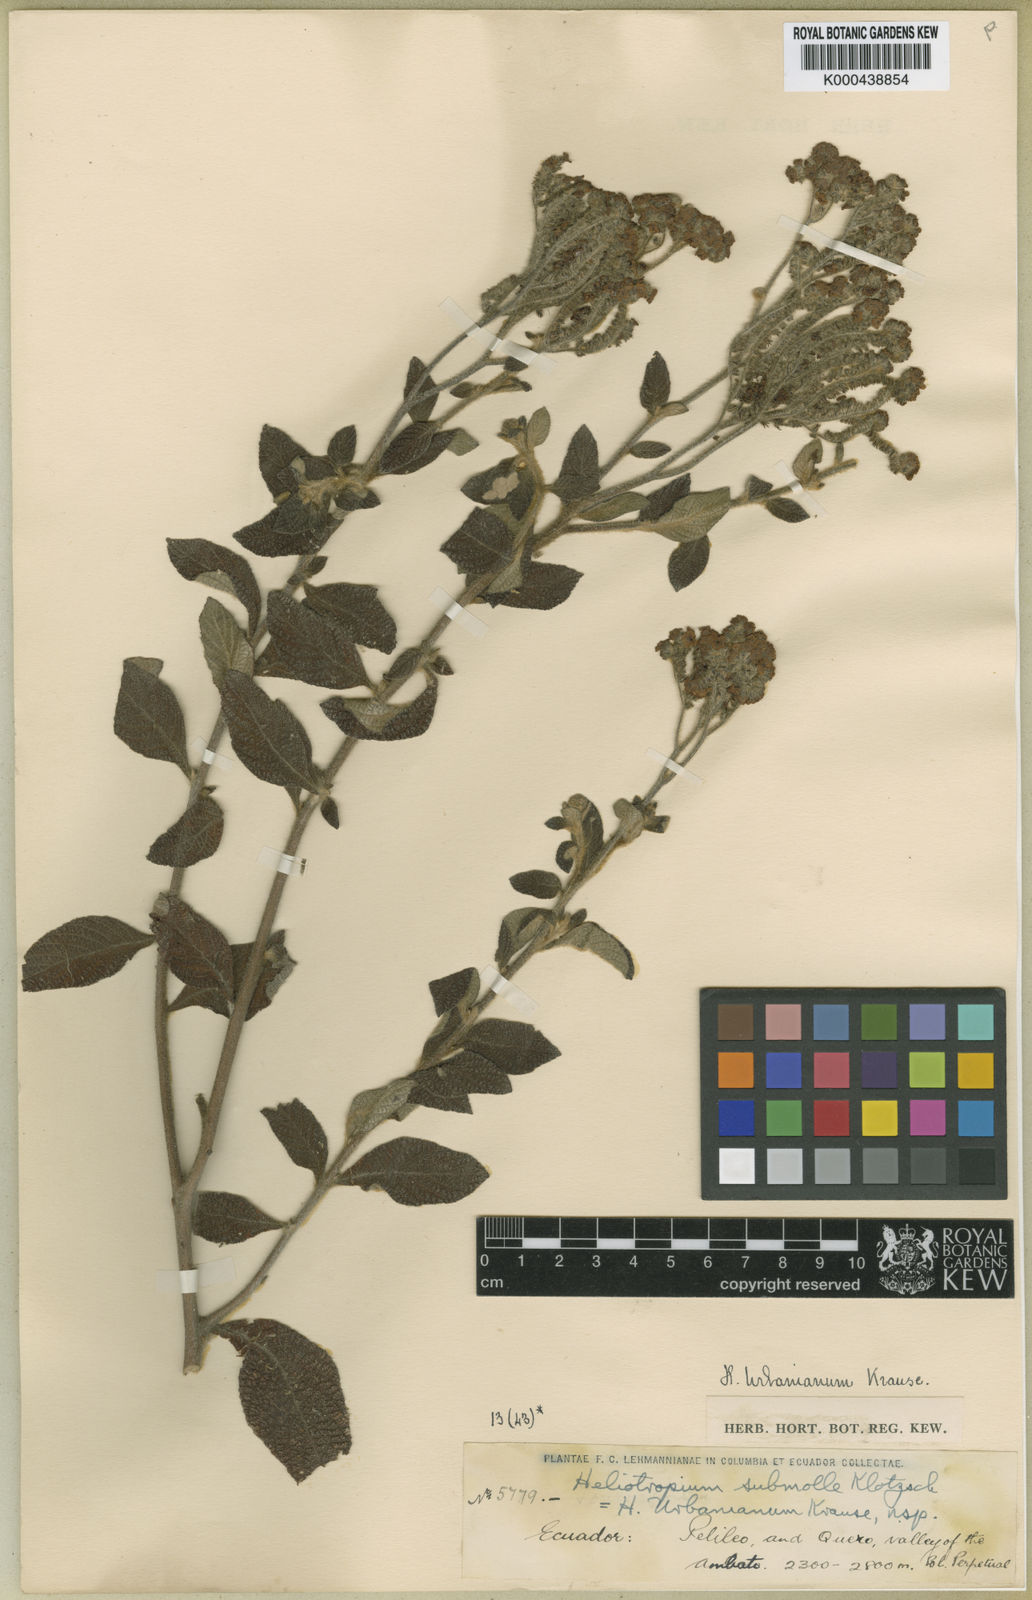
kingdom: Plantae
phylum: Tracheophyta
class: Magnoliopsida
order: Boraginales
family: Heliotropiaceae
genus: Heliotropium
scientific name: Heliotropium arborescens
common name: Cherry-pie
